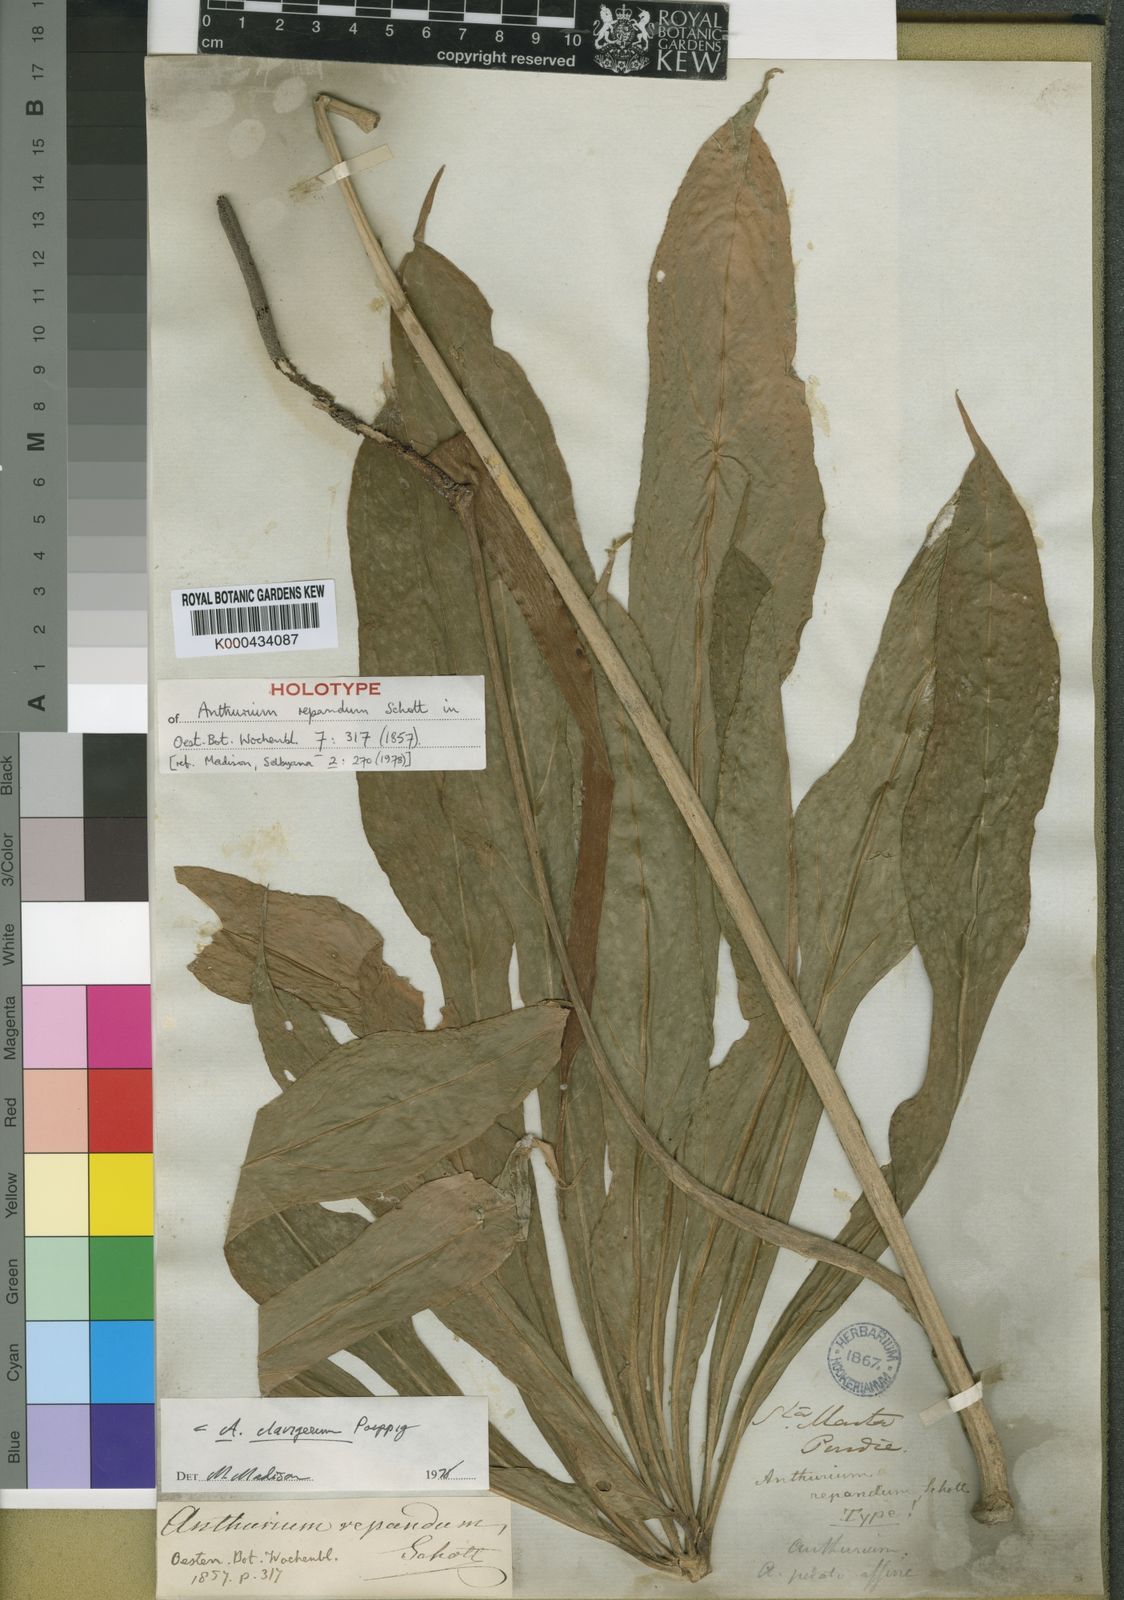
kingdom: Plantae
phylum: Tracheophyta
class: Liliopsida
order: Alismatales
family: Araceae
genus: Anthurium
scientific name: Anthurium
